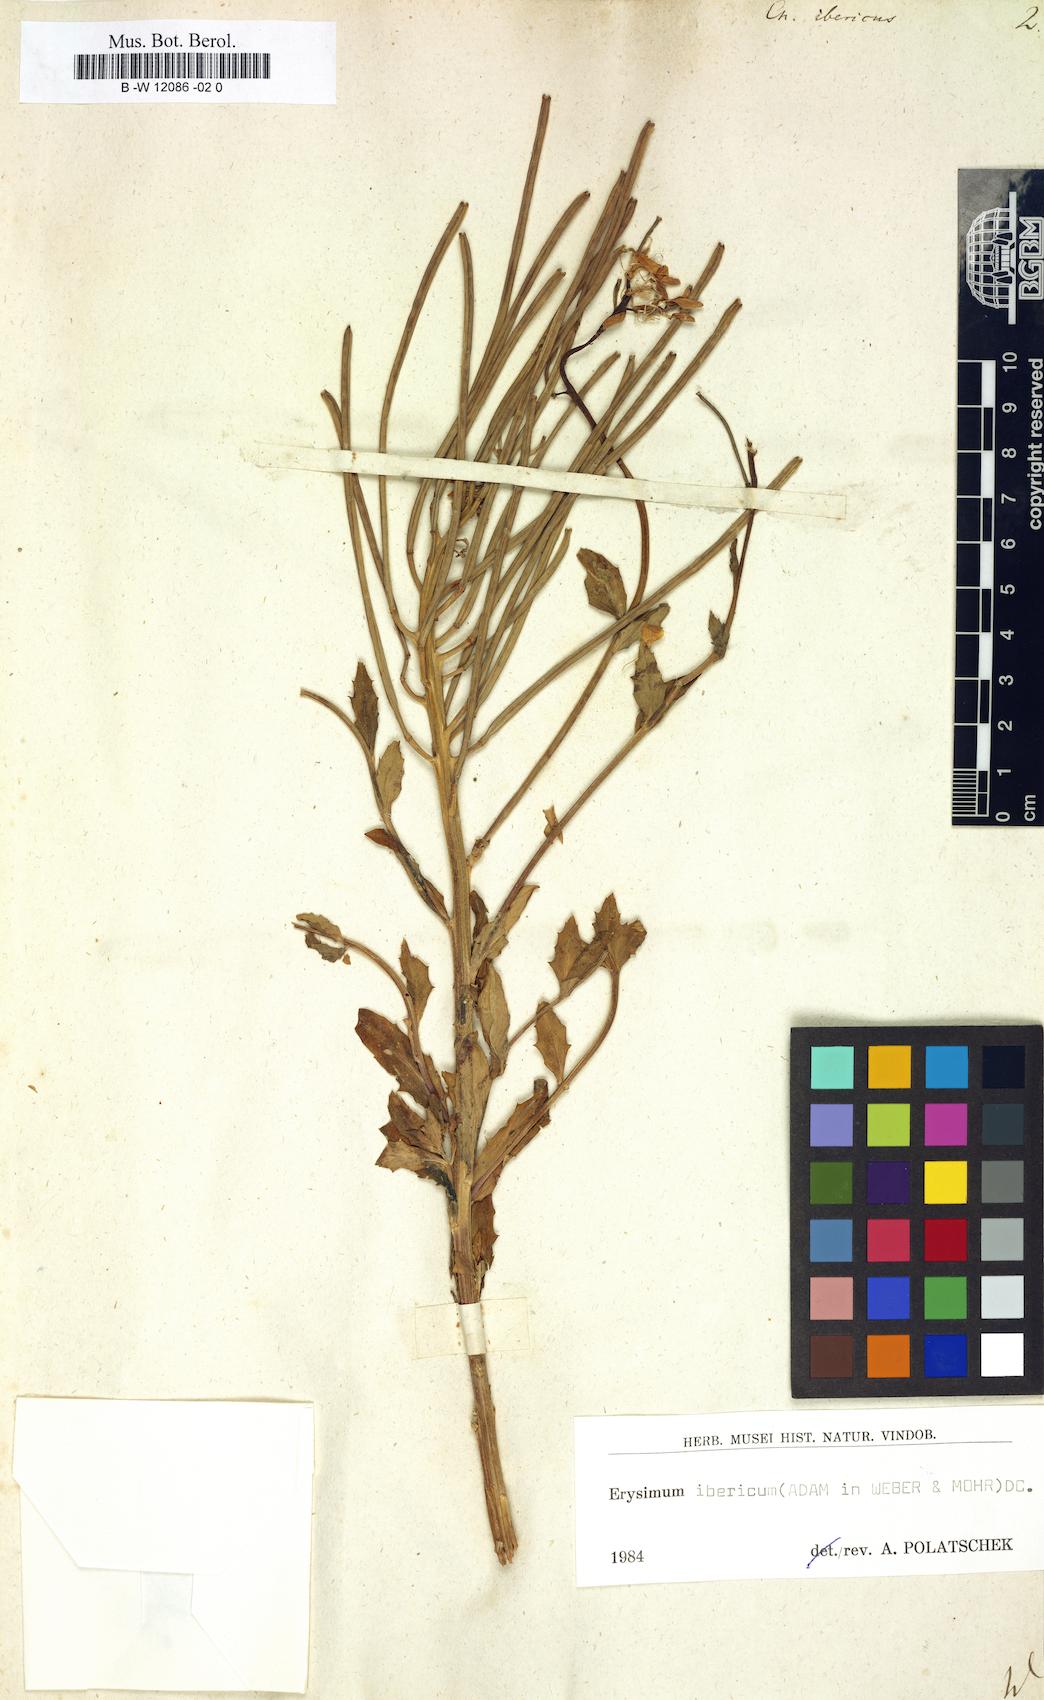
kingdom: Plantae
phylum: Tracheophyta
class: Magnoliopsida
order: Brassicales
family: Brassicaceae
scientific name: Brassicaceae
